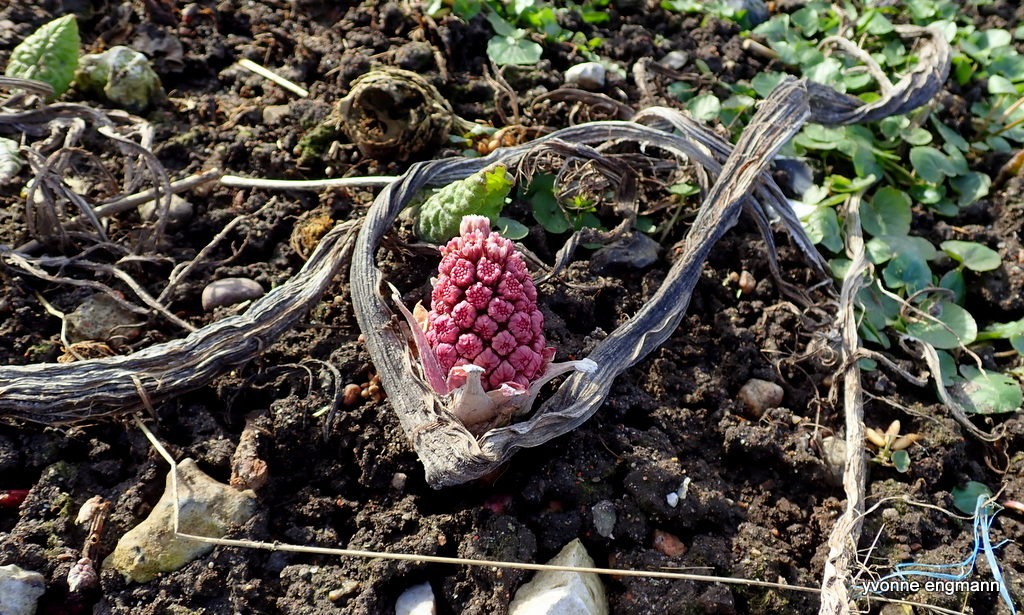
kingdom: Plantae
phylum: Tracheophyta
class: Magnoliopsida
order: Asterales
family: Asteraceae
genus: Petasites
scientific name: Petasites hybridus
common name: Rød hestehov
